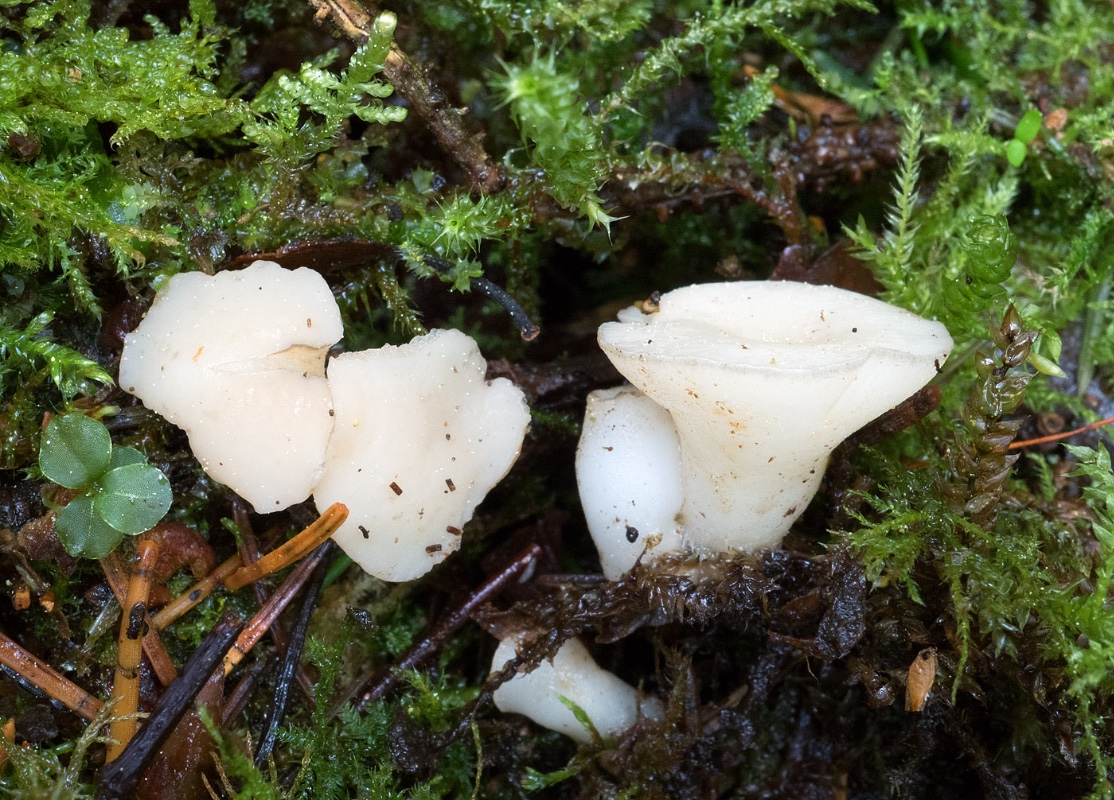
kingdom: Fungi
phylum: Ascomycota
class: Leotiomycetes
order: Helotiales
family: Tricladiaceae
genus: Cudoniella
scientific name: Cudoniella tenuispora
